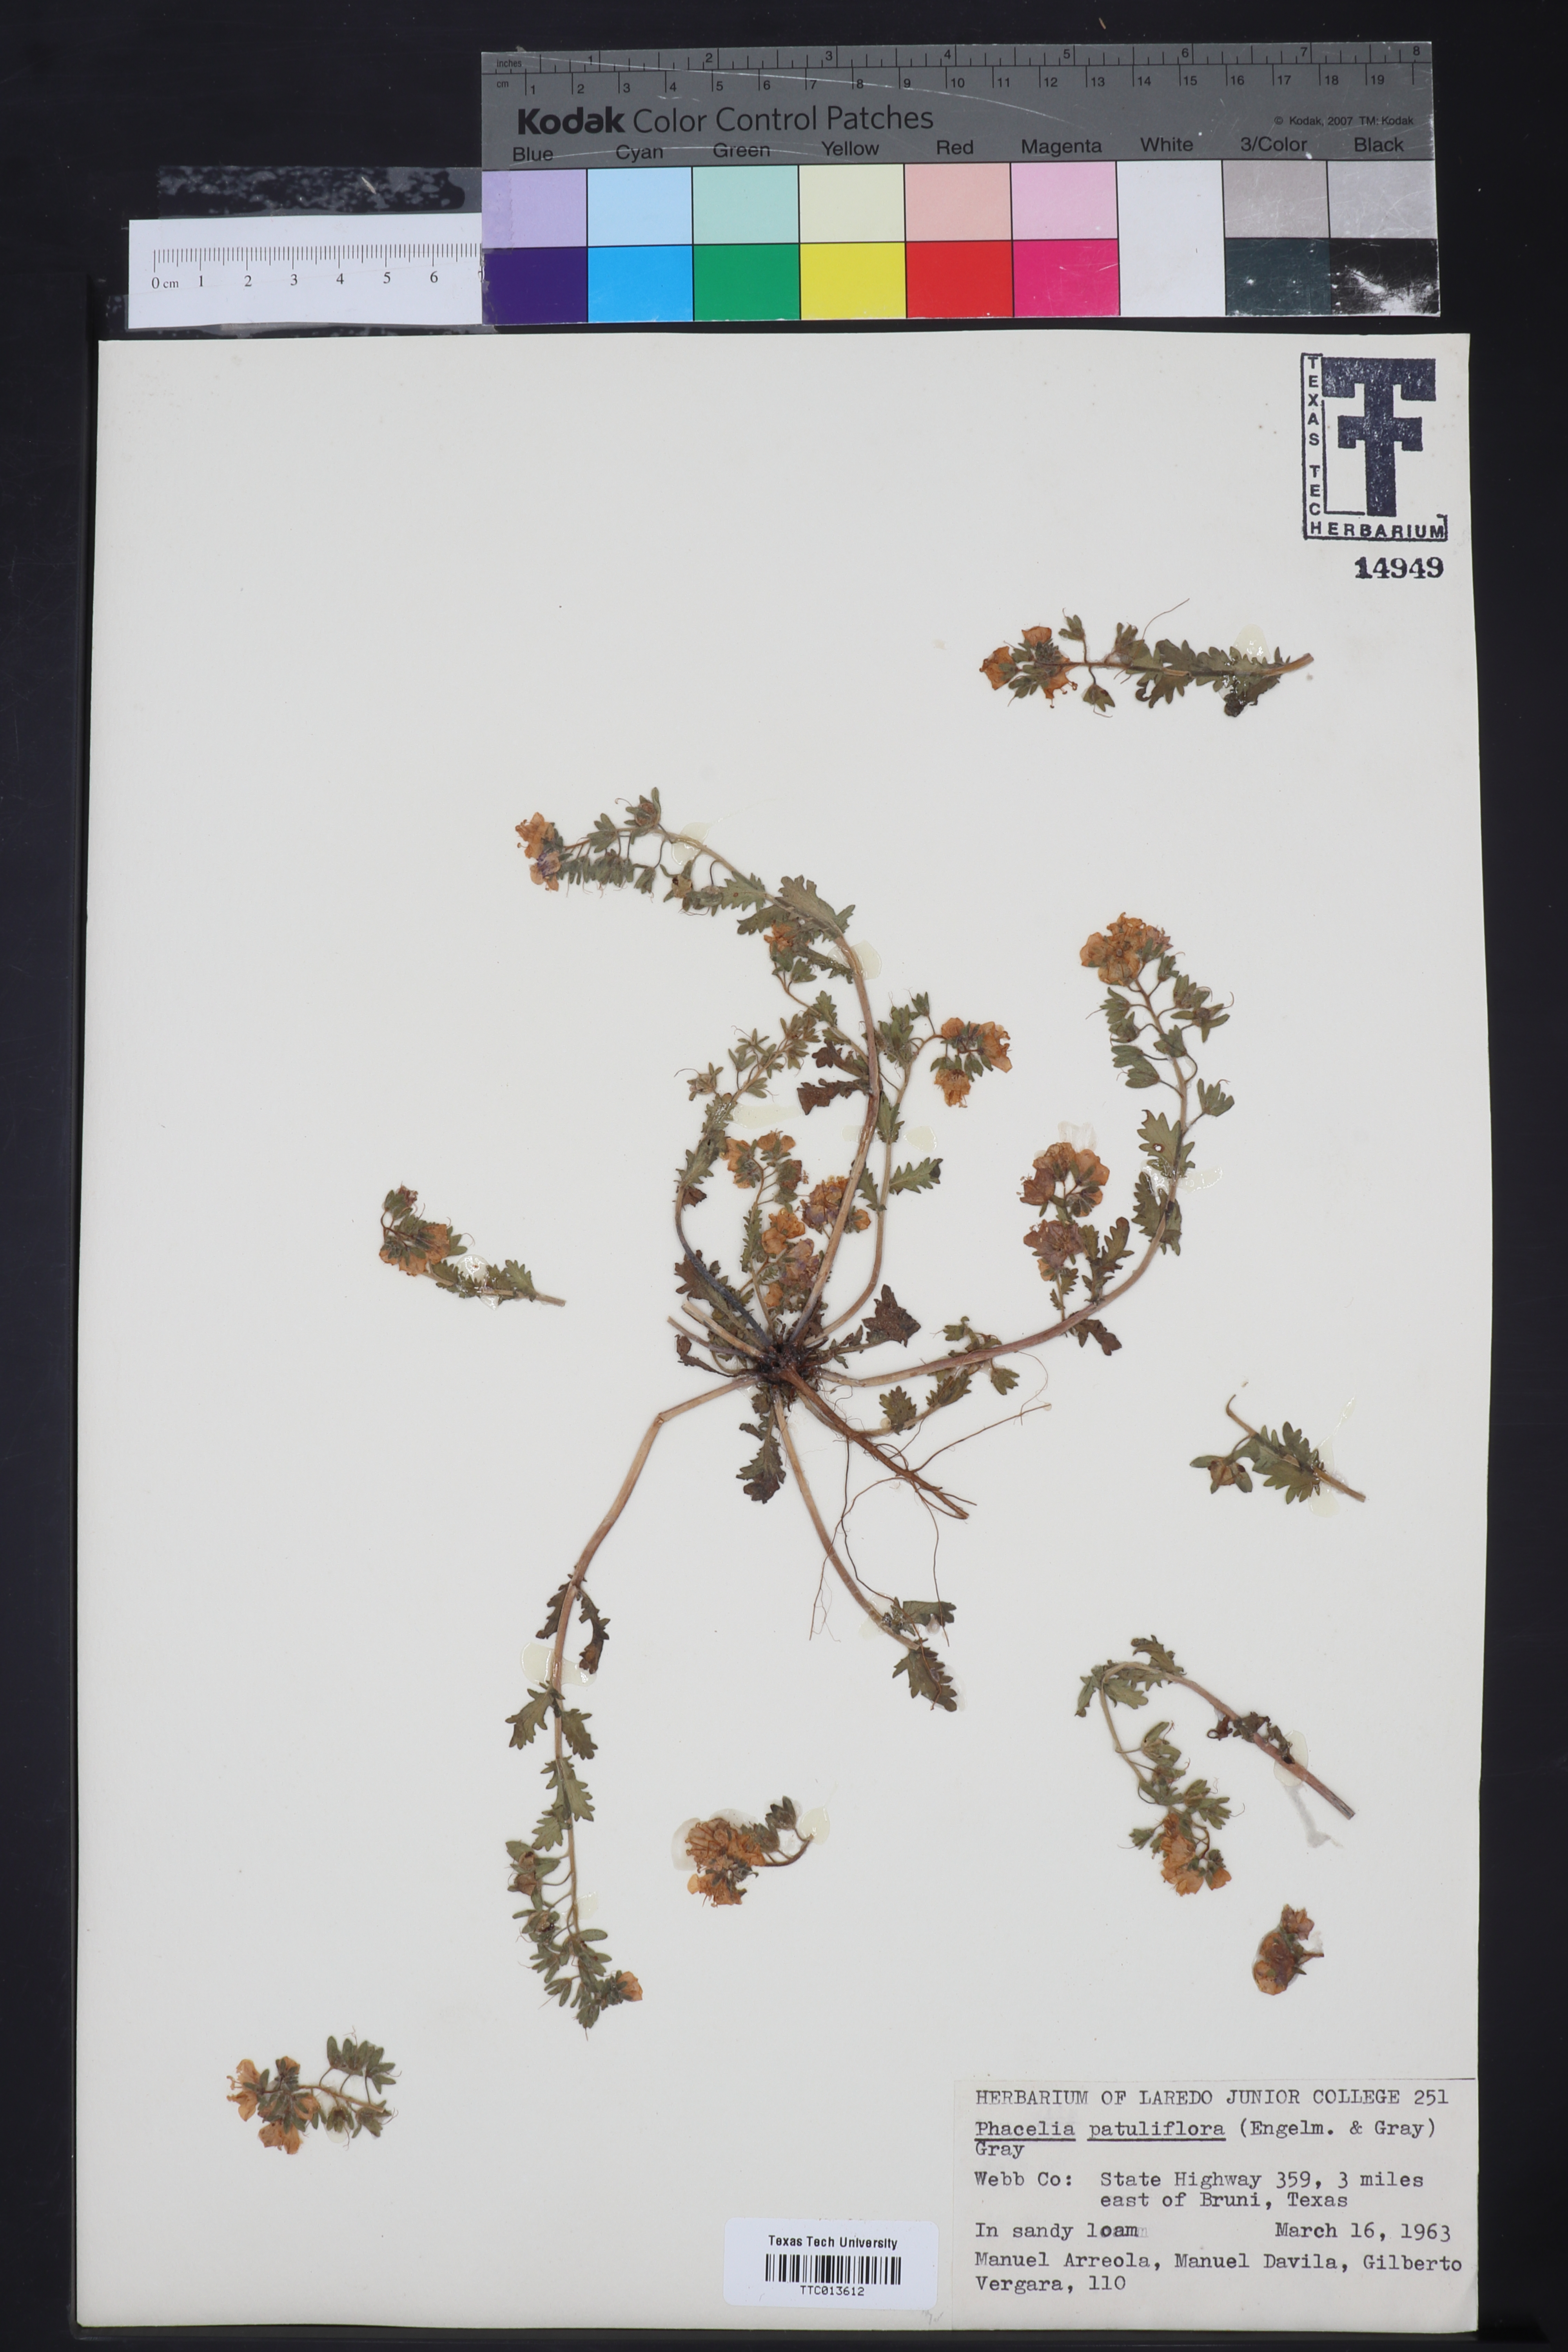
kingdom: Plantae
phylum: Tracheophyta
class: Magnoliopsida
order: Boraginales
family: Hydrophyllaceae
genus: Phacelia
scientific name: Phacelia patuliflora
